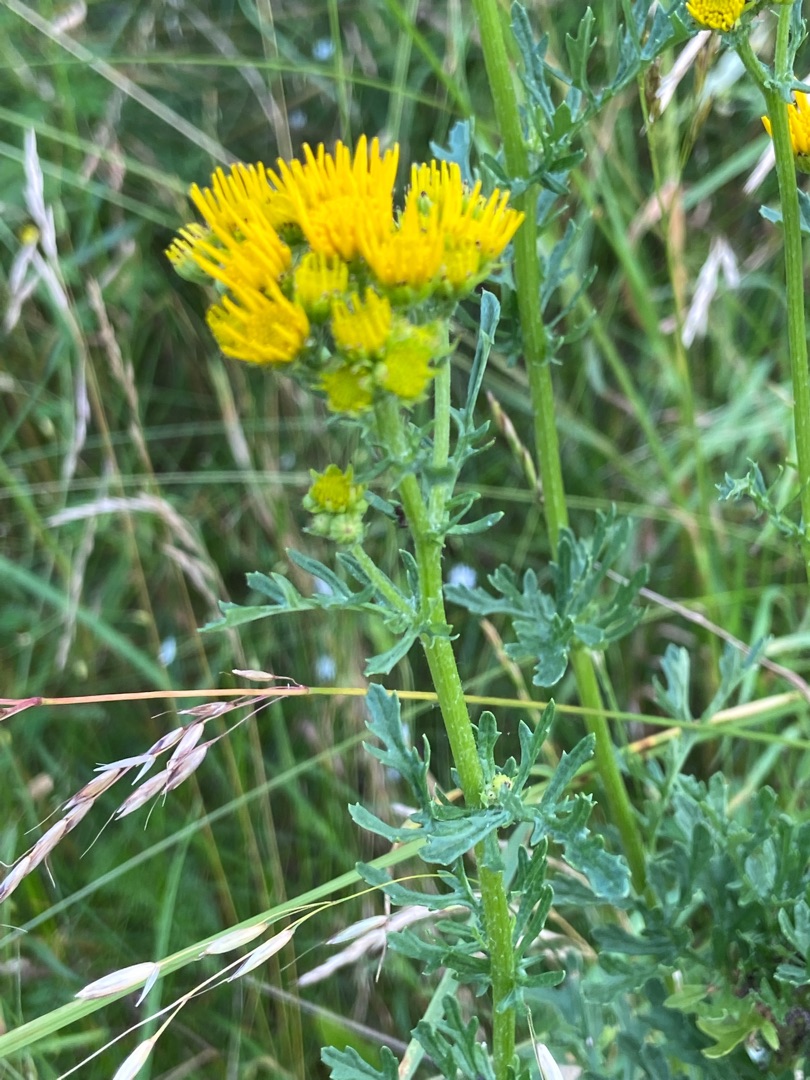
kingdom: Plantae
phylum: Tracheophyta
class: Magnoliopsida
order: Asterales
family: Asteraceae
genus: Jacobaea
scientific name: Jacobaea vulgaris
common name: Eng-brandbæger
